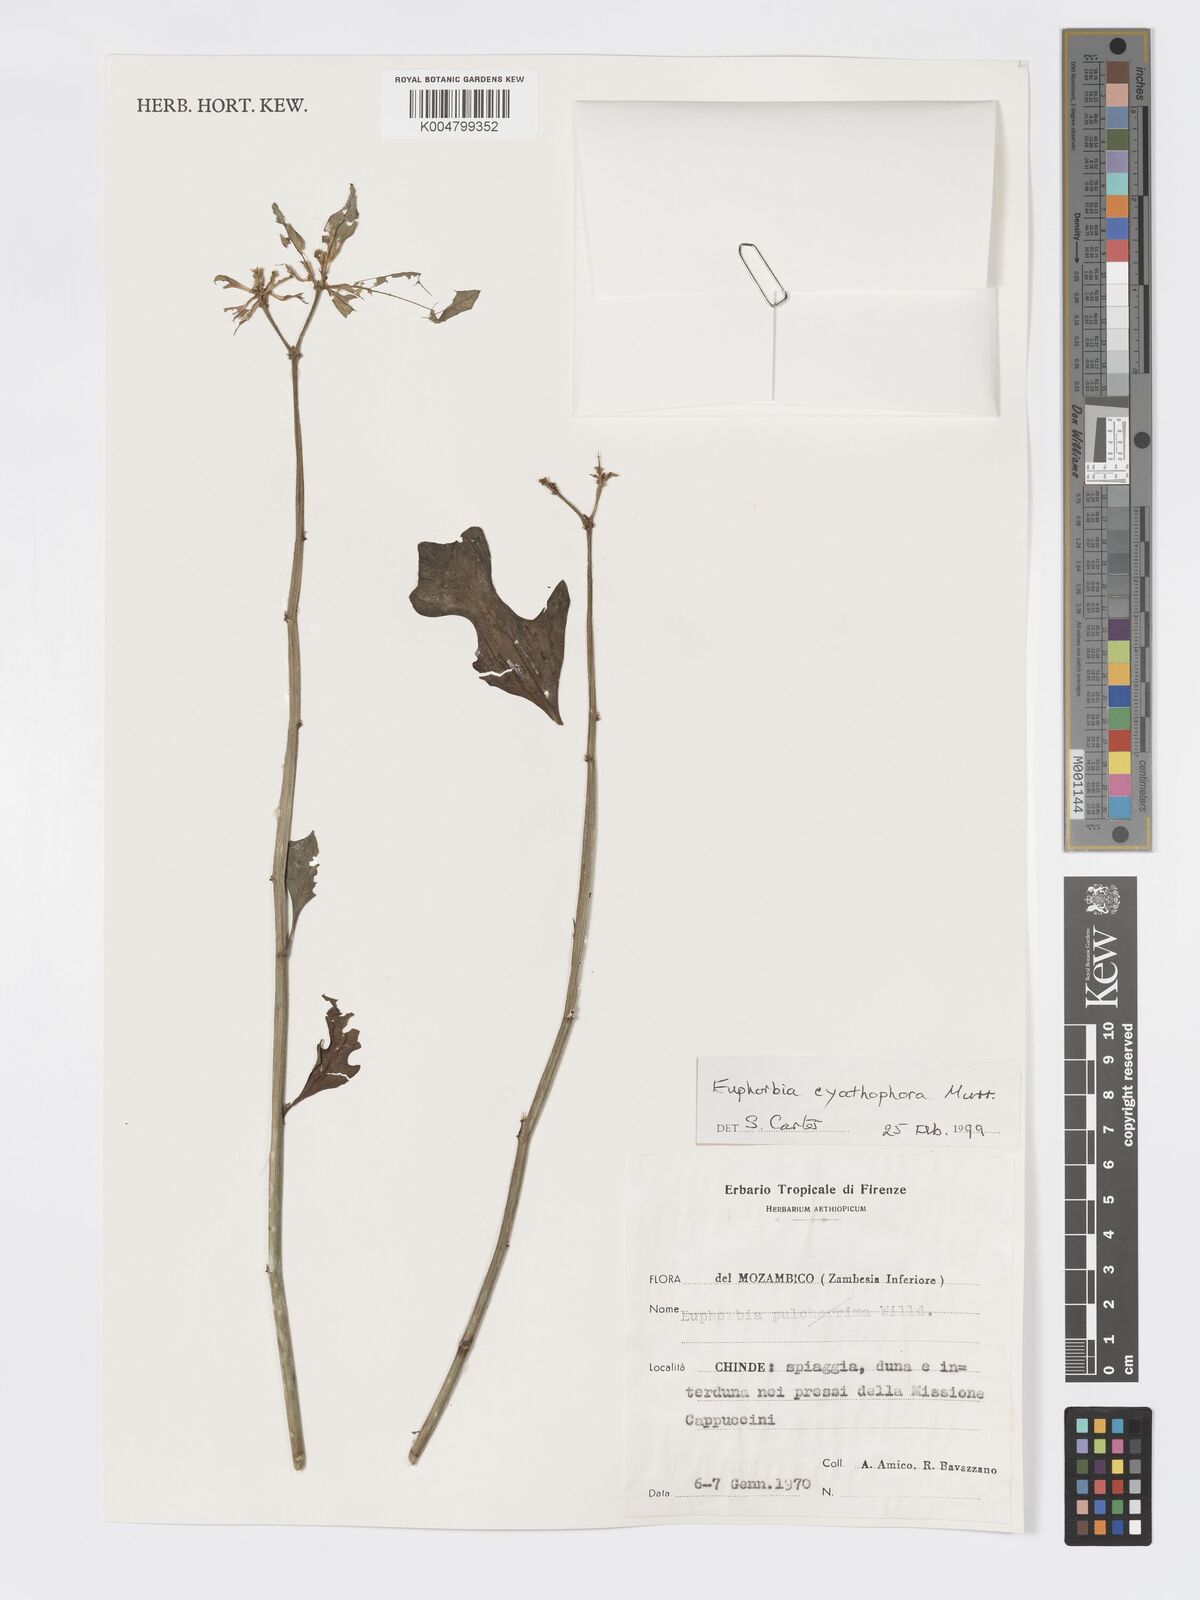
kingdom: Plantae
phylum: Tracheophyta
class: Magnoliopsida
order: Malpighiales
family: Euphorbiaceae
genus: Euphorbia
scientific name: Euphorbia heterophylla
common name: Mexican fireplant
